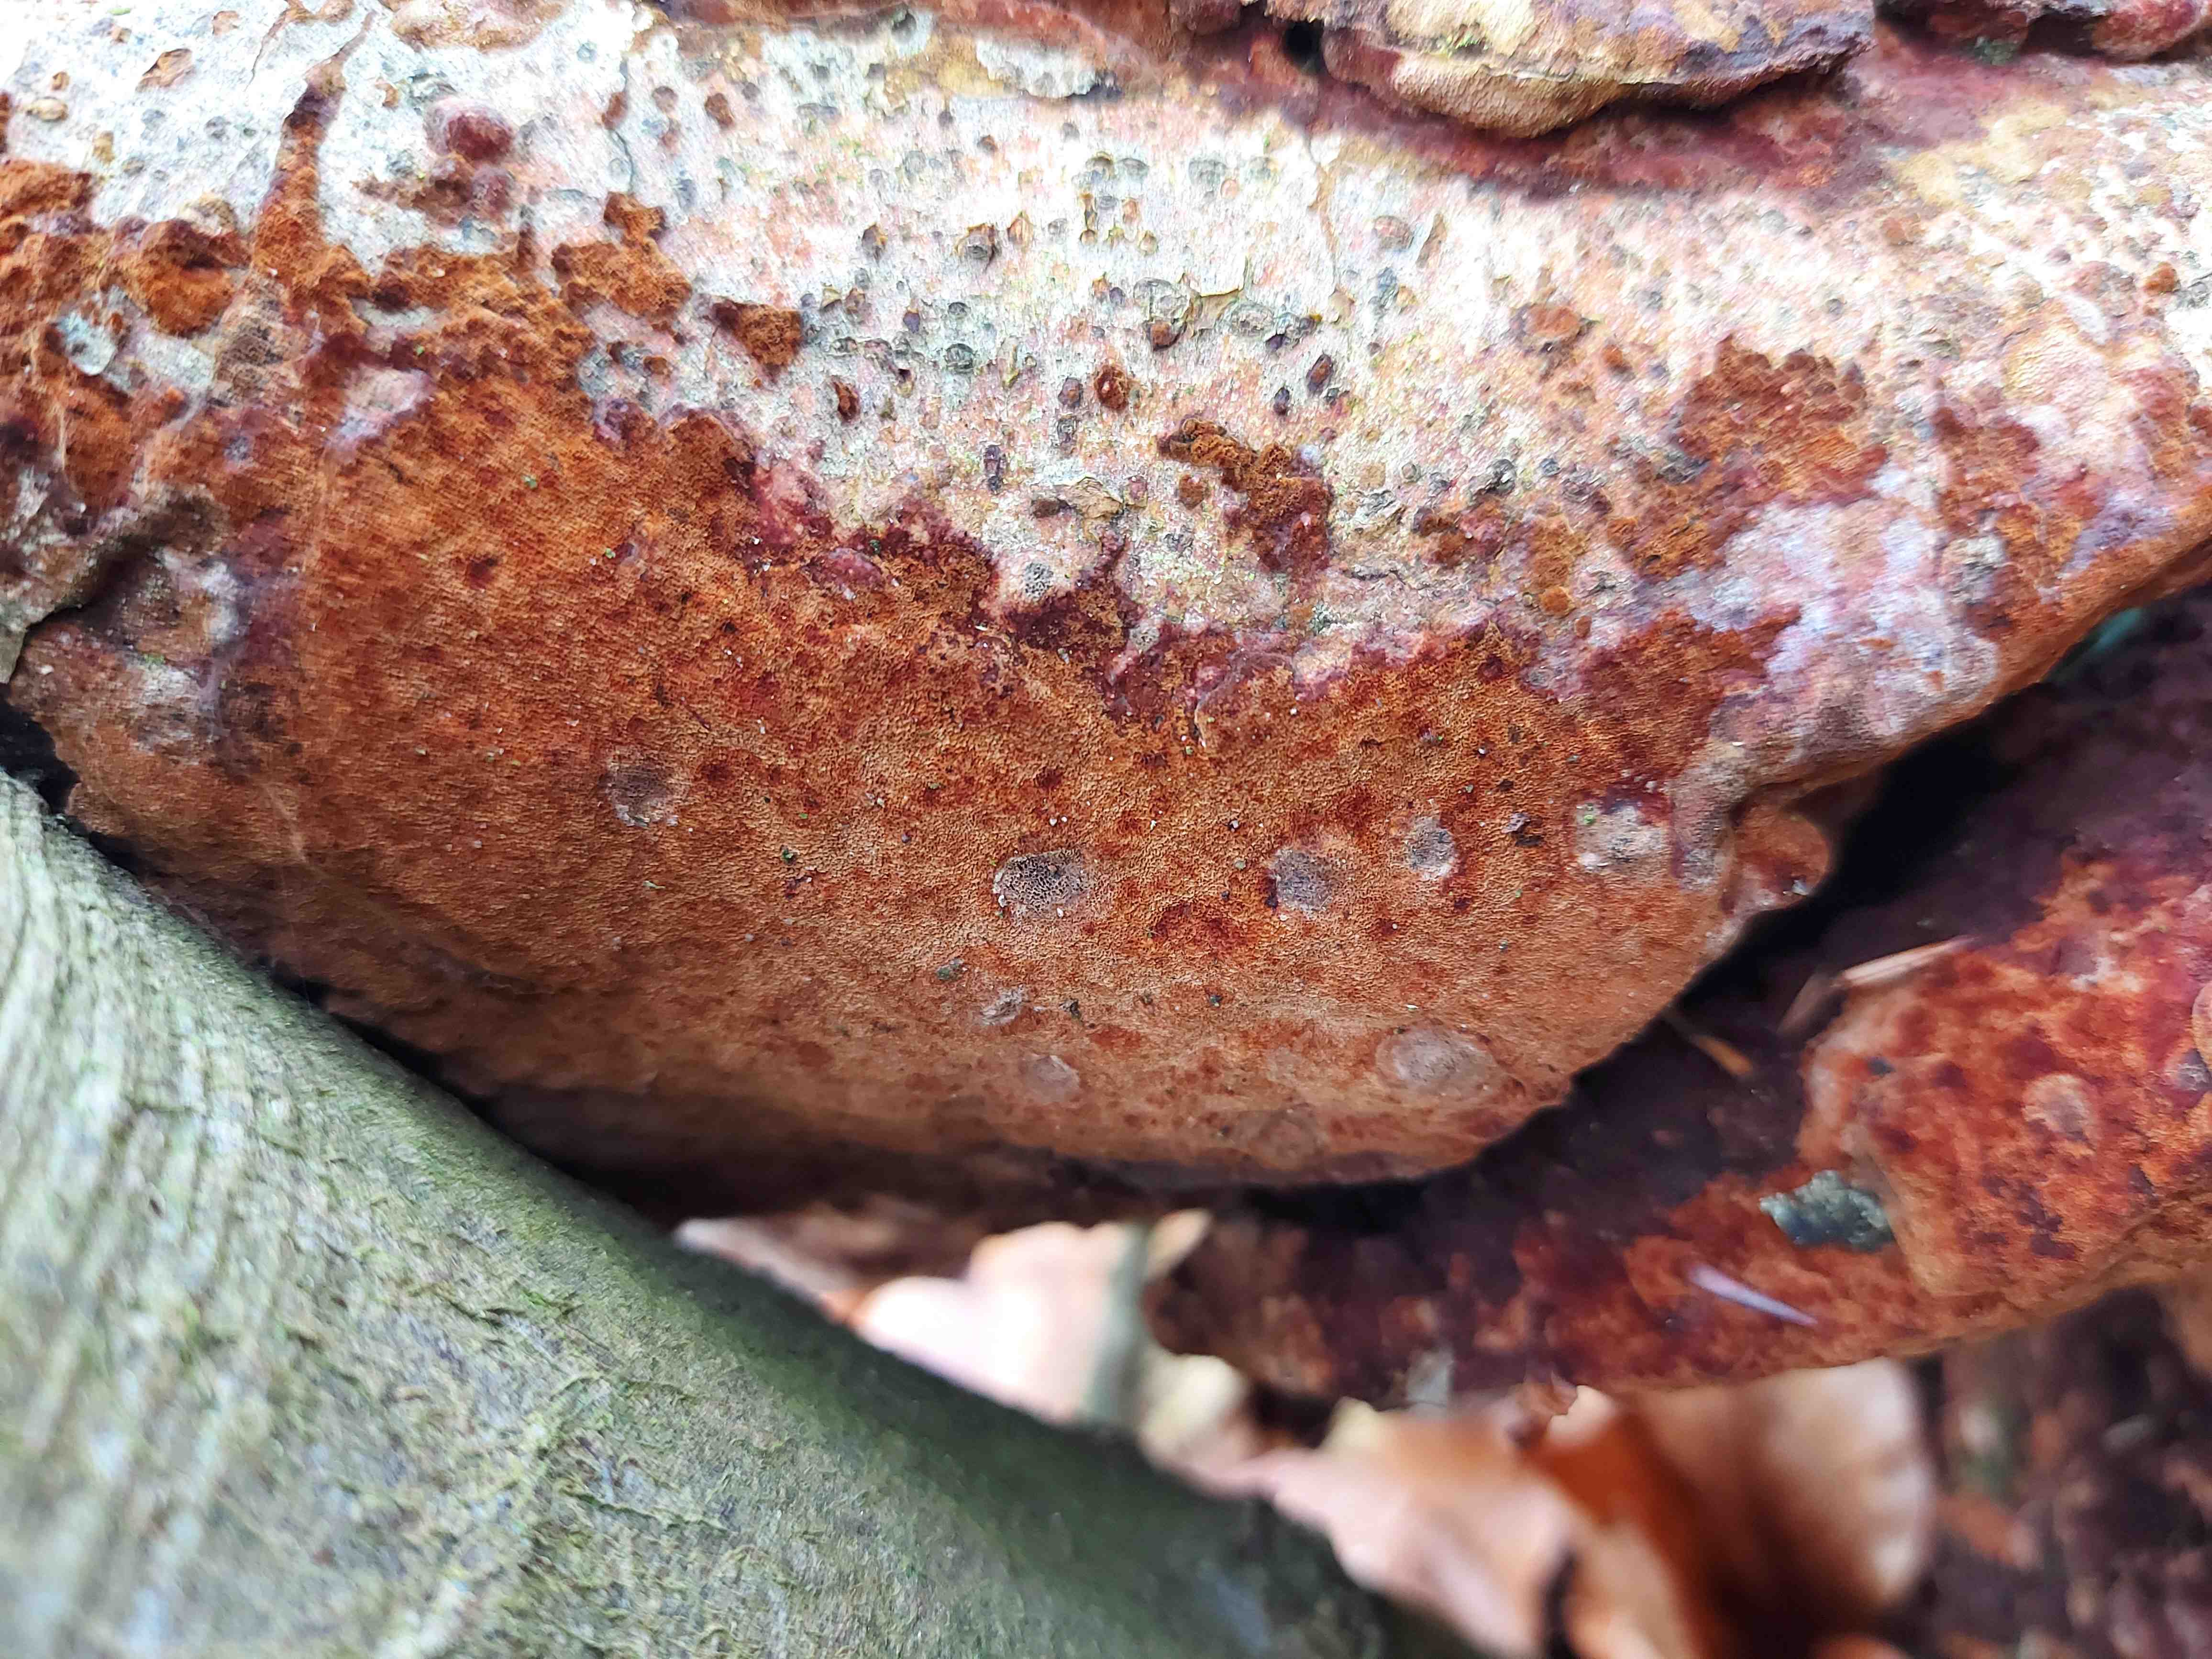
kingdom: Fungi
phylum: Basidiomycota
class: Agaricomycetes
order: Hymenochaetales
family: Hymenochaetaceae
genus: Fuscoporia
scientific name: Fuscoporia
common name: Ildporesvamp
